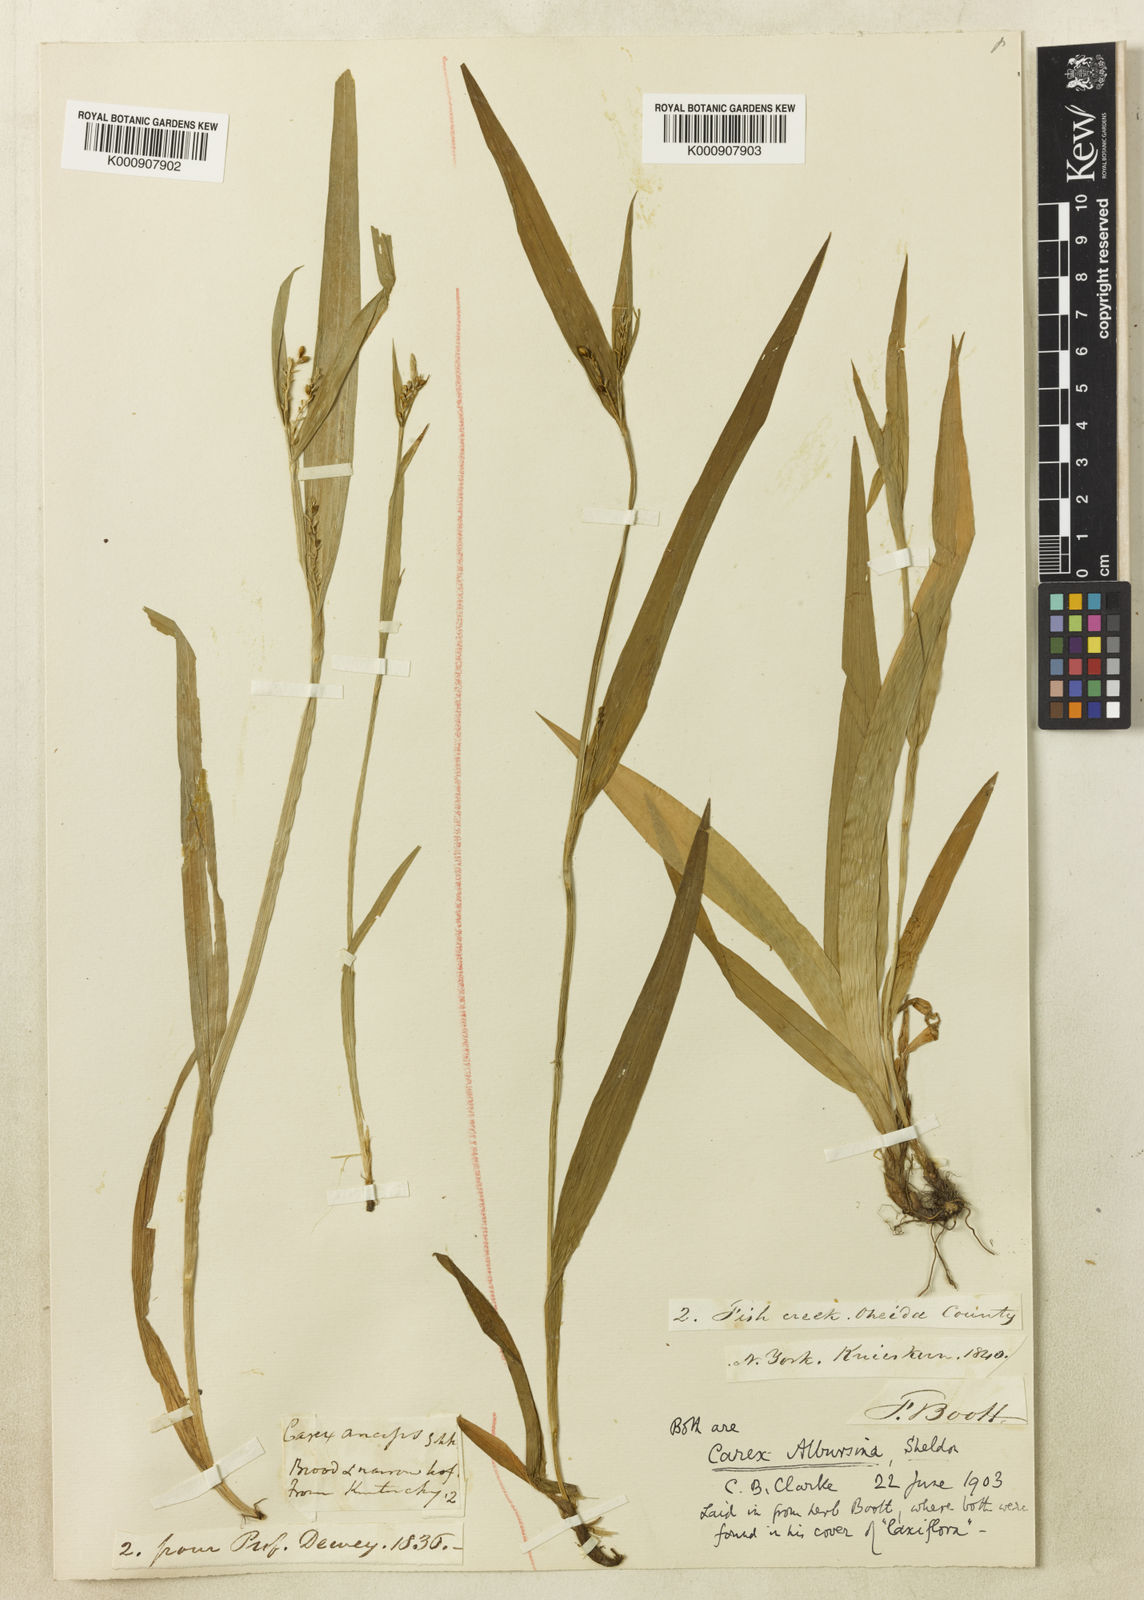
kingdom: Plantae
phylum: Tracheophyta
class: Liliopsida
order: Poales
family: Cyperaceae
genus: Carex
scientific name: Carex albursina
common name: Blunt-scale wood sedge
